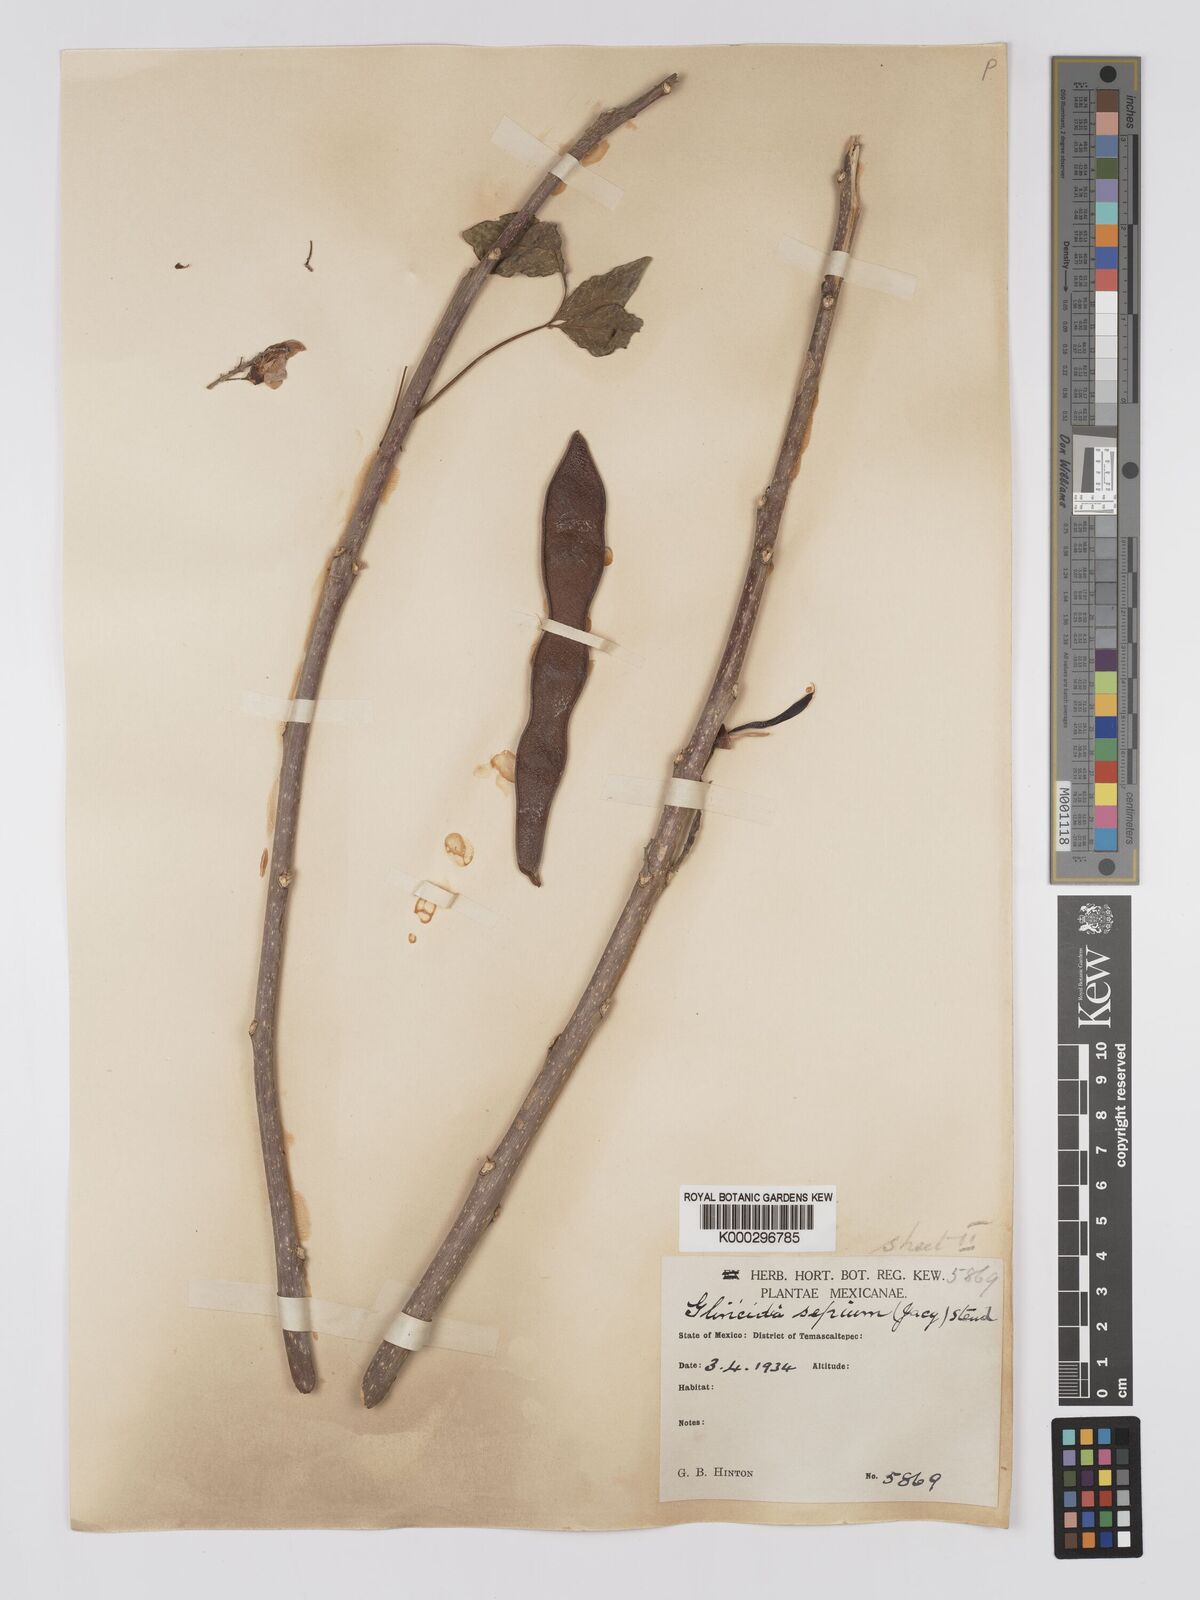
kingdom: Plantae
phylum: Tracheophyta
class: Magnoliopsida
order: Fabales
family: Fabaceae
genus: Gliricidia
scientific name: Gliricidia sepium
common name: Quickstick
